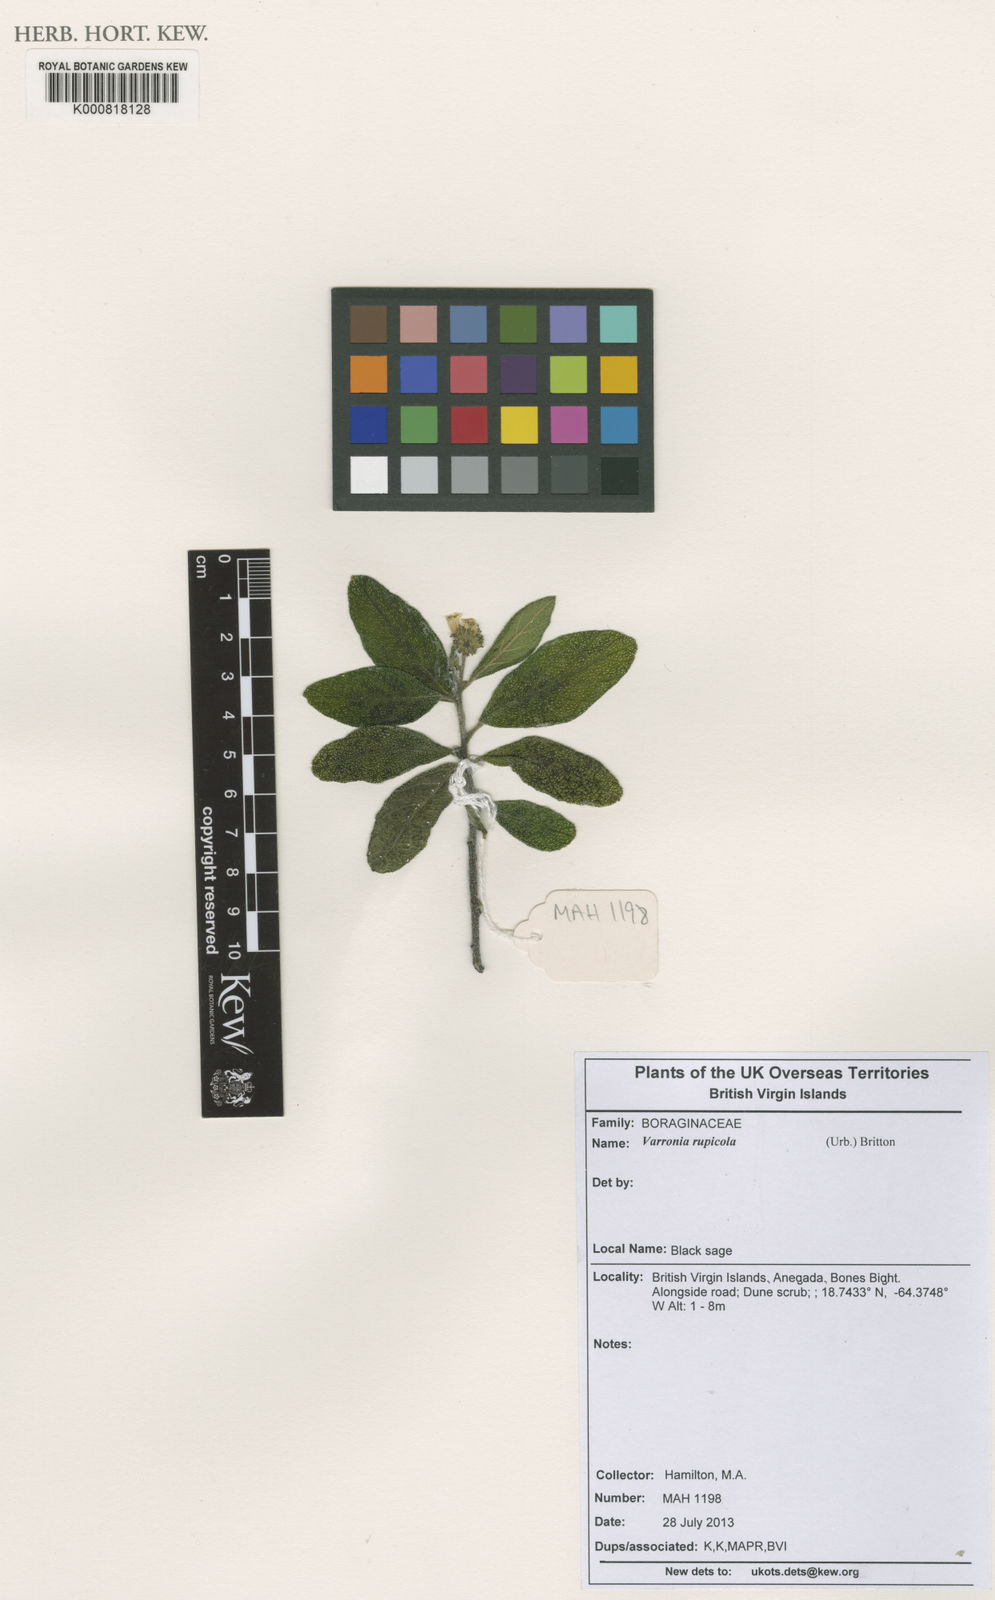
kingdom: Plantae
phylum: Tracheophyta
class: Magnoliopsida
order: Boraginales
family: Cordiaceae
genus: Varronia
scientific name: Varronia rupicola
